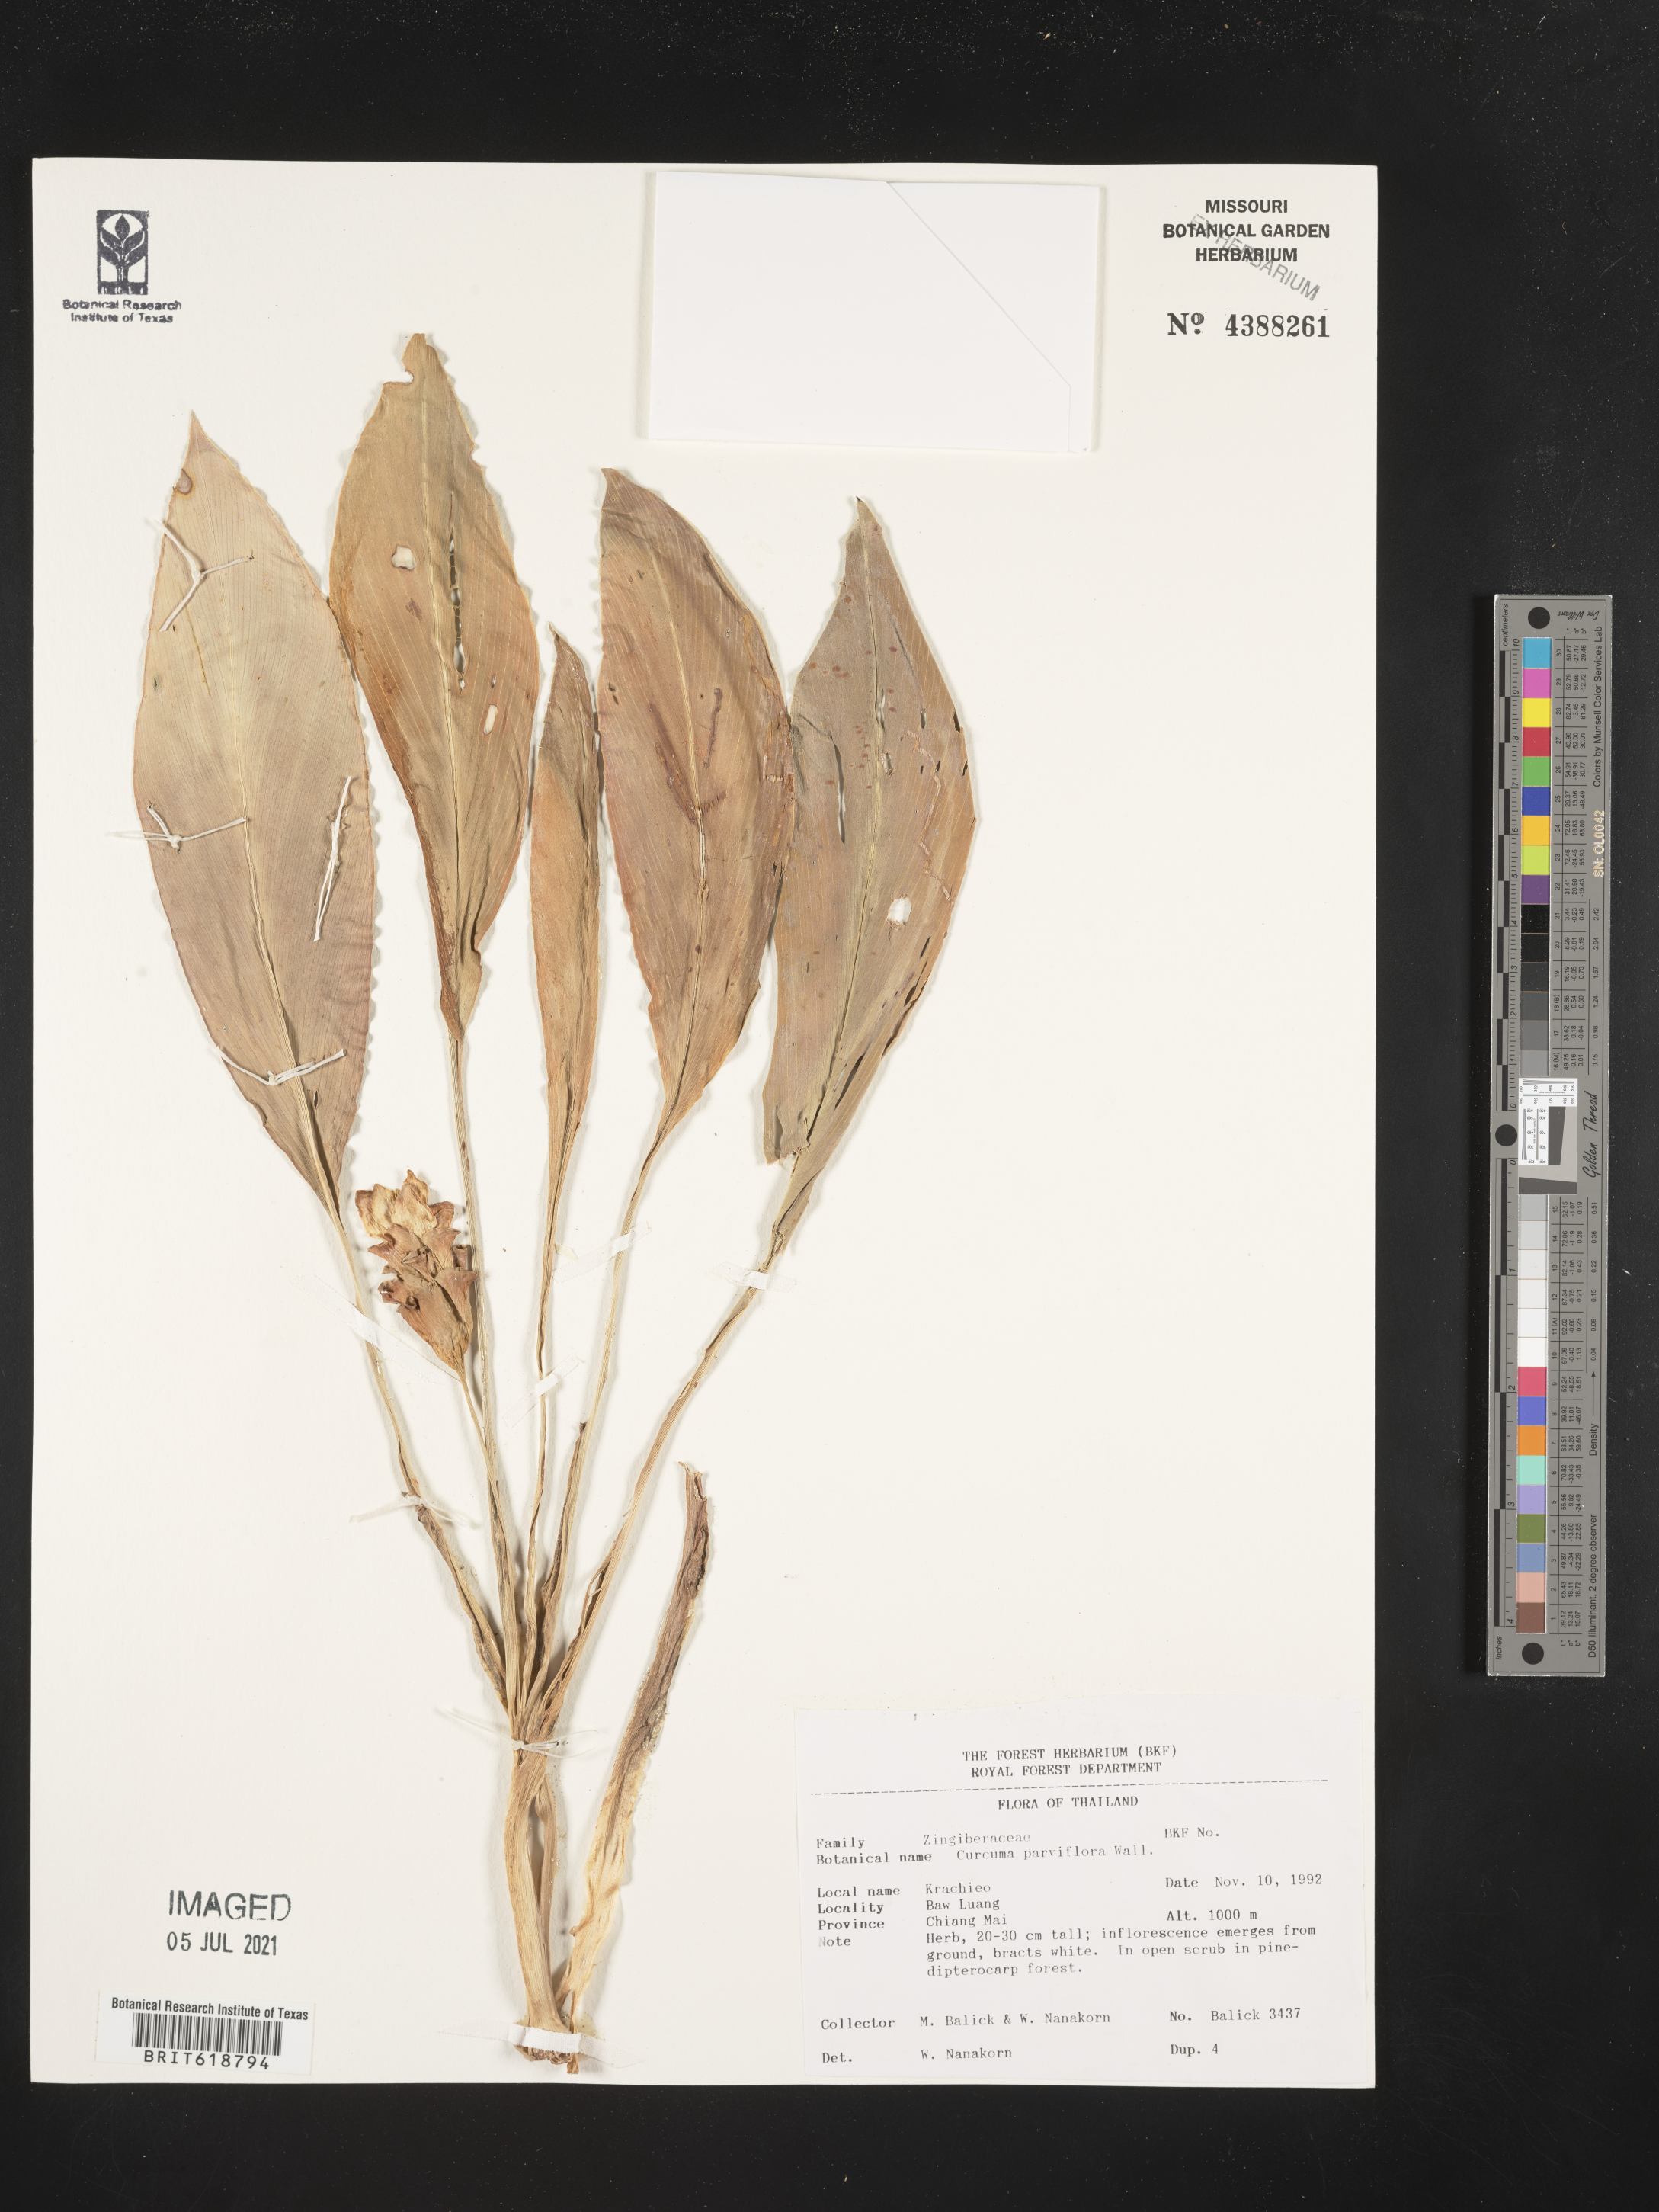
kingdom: Plantae
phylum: Tracheophyta
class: Liliopsida
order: Zingiberales
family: Zingiberaceae
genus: Curcuma
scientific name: Curcuma parviflora
